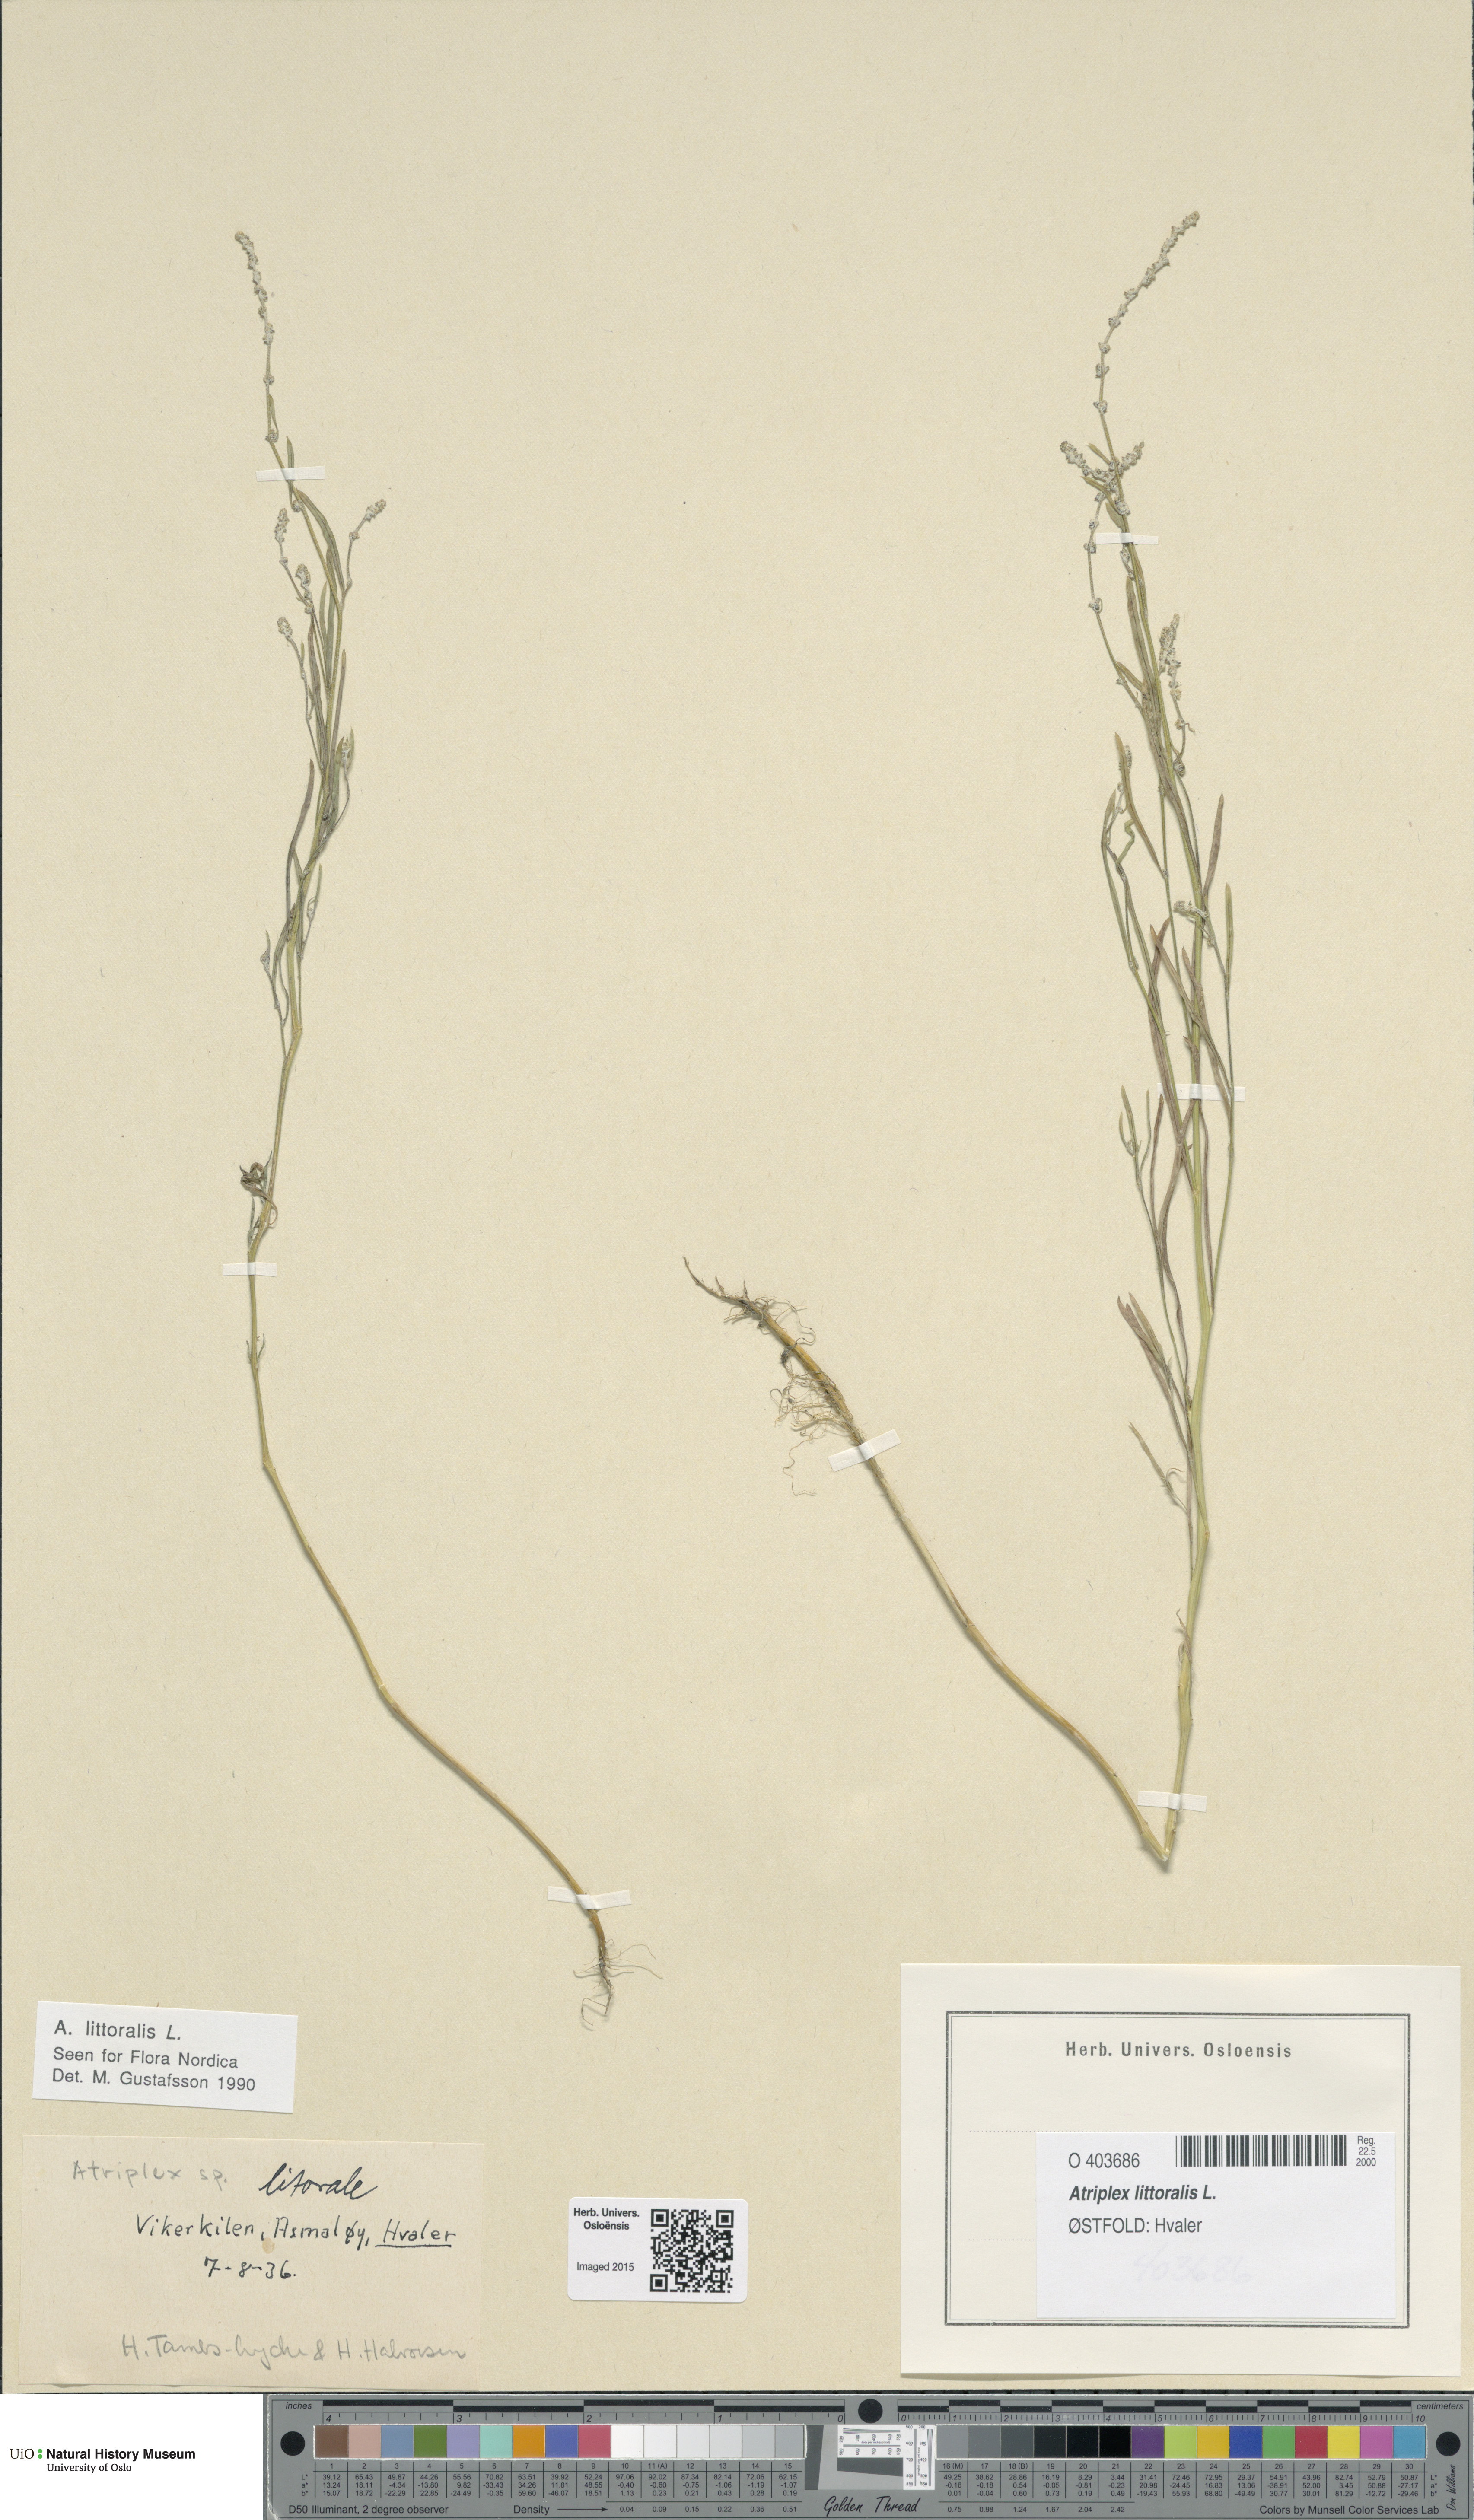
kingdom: Plantae
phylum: Tracheophyta
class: Magnoliopsida
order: Caryophyllales
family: Amaranthaceae
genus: Atriplex
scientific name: Atriplex littoralis
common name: Grass-leaved orache
